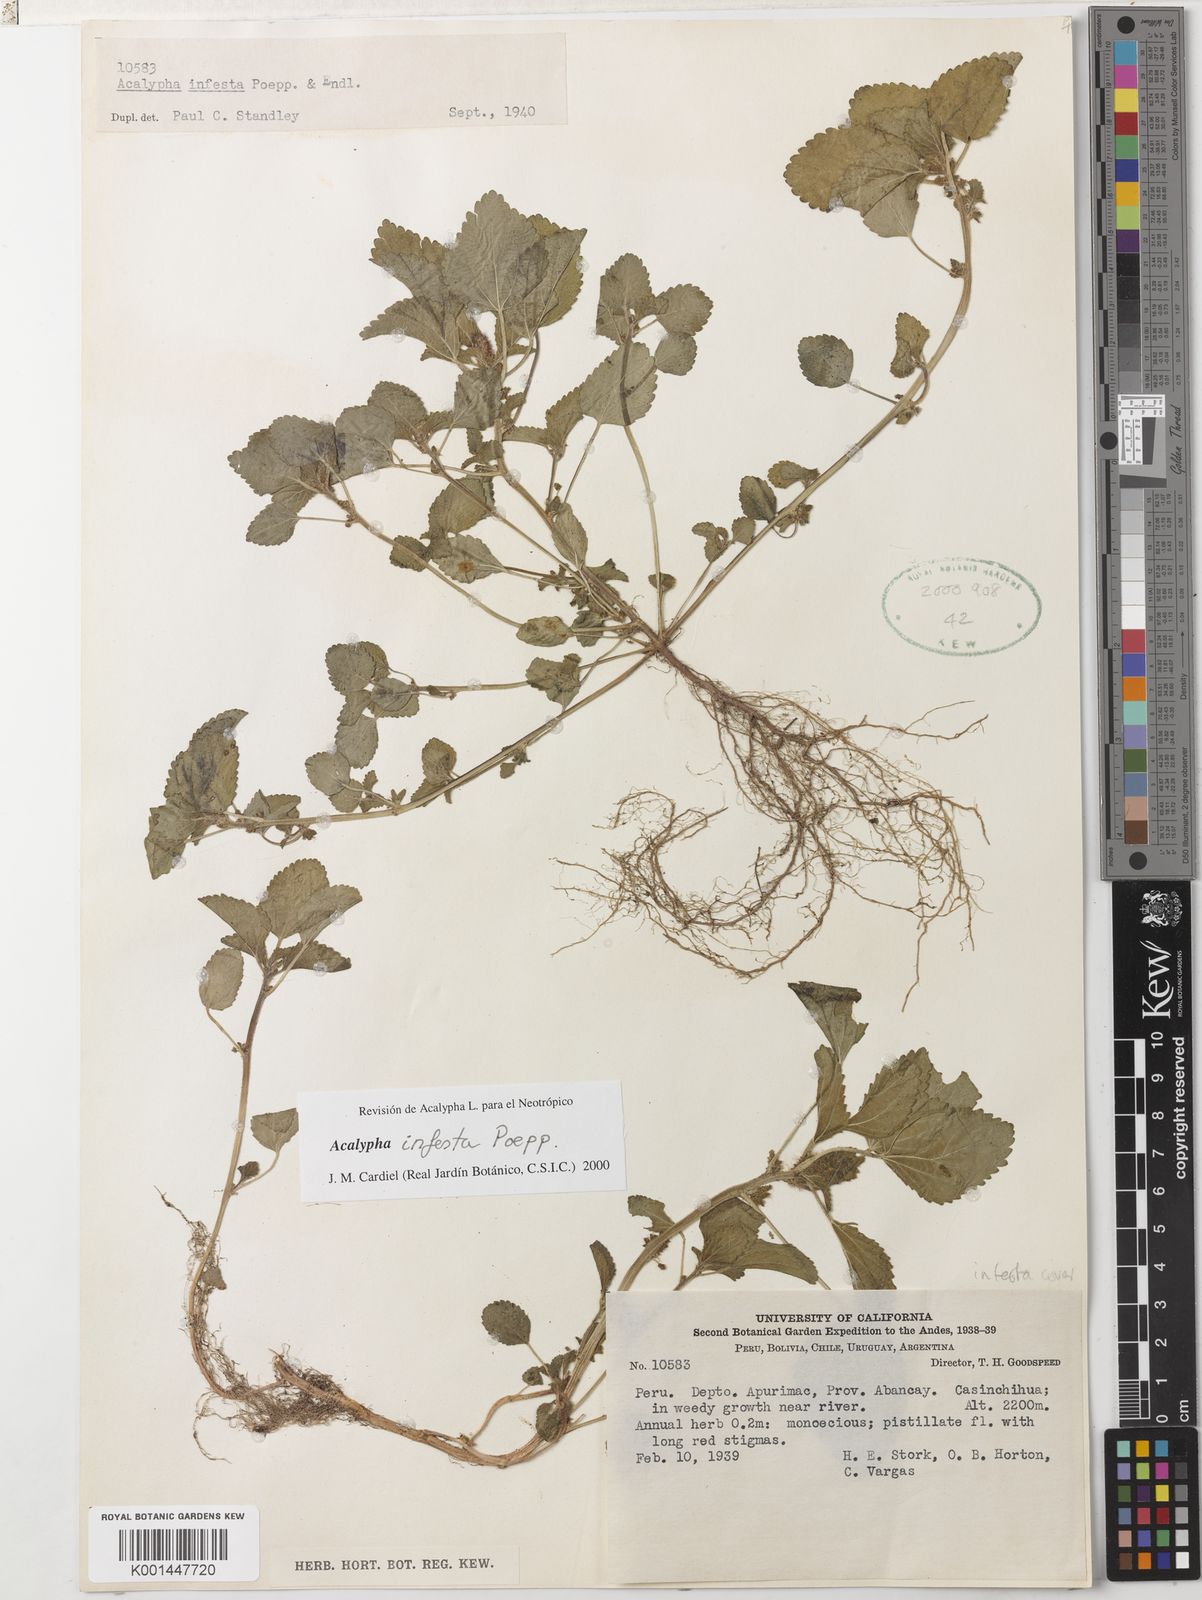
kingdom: Plantae
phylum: Tracheophyta
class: Magnoliopsida
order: Malpighiales
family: Euphorbiaceae
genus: Acalypha
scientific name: Acalypha infesta
